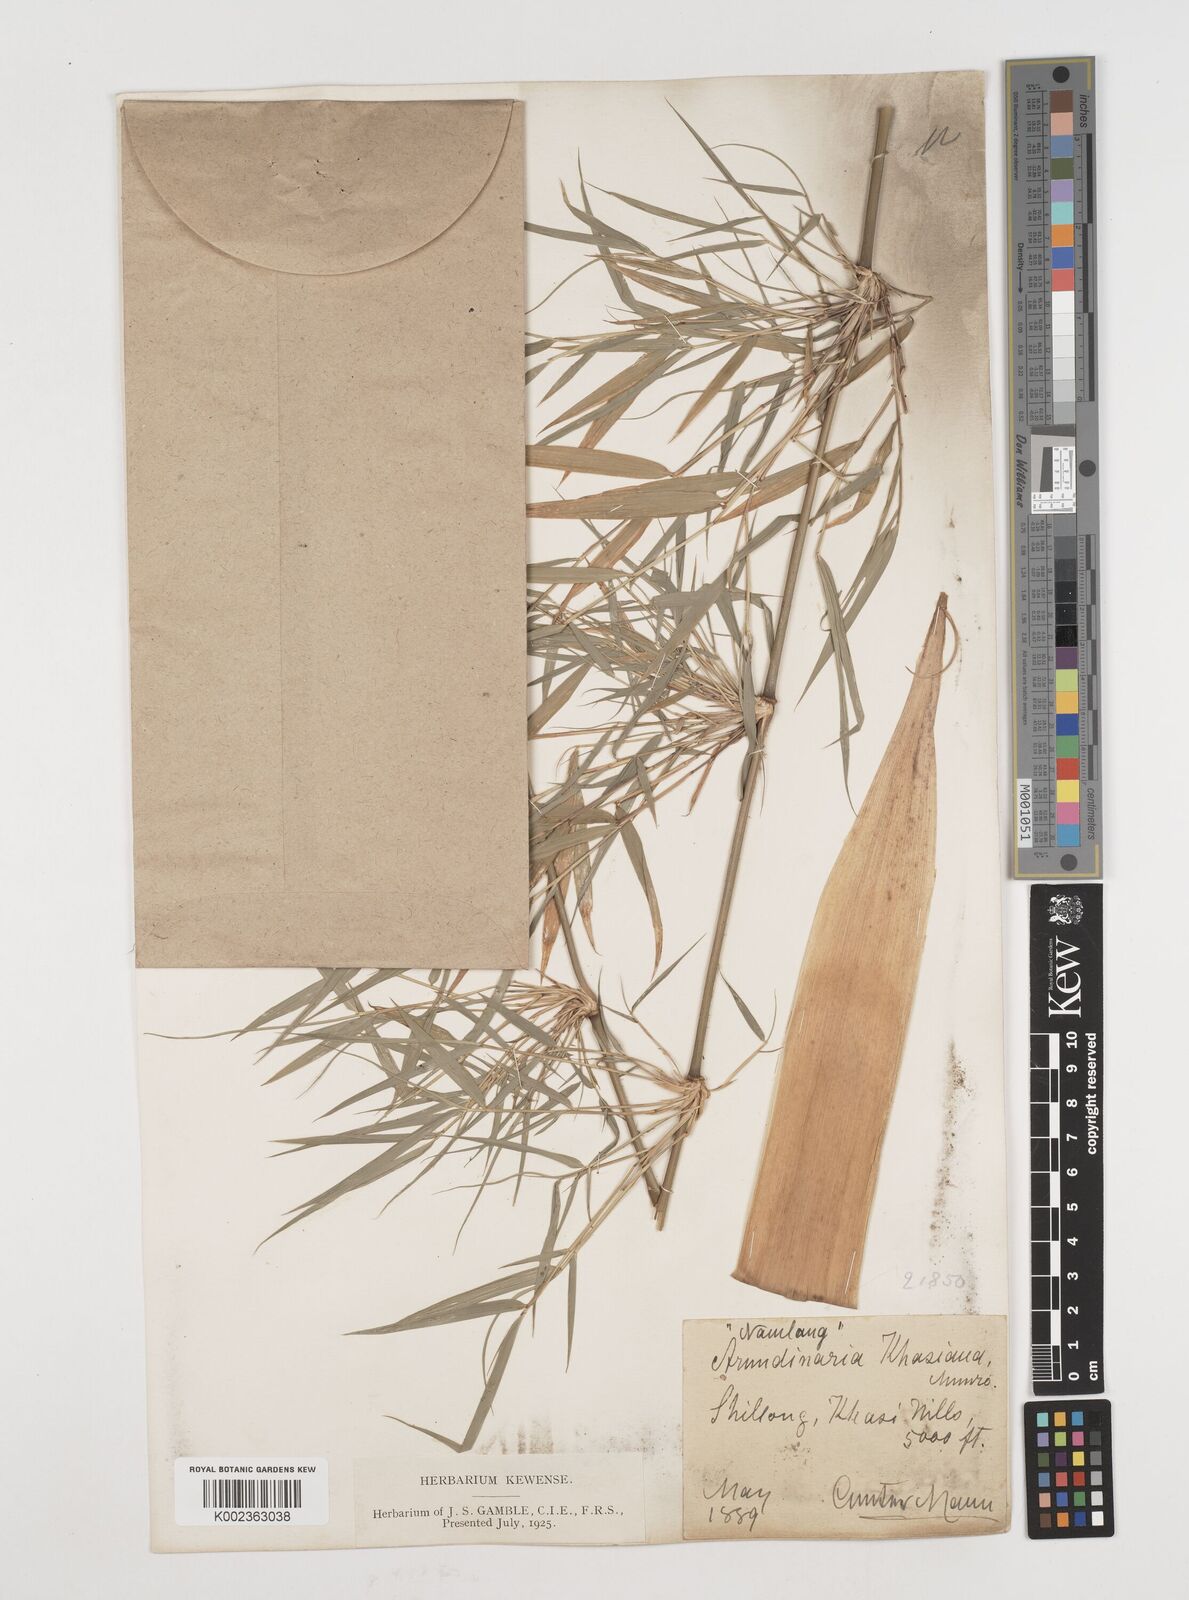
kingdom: Plantae
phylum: Tracheophyta
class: Liliopsida
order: Poales
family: Poaceae
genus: Drepanostachyum
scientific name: Drepanostachyum khasianum
